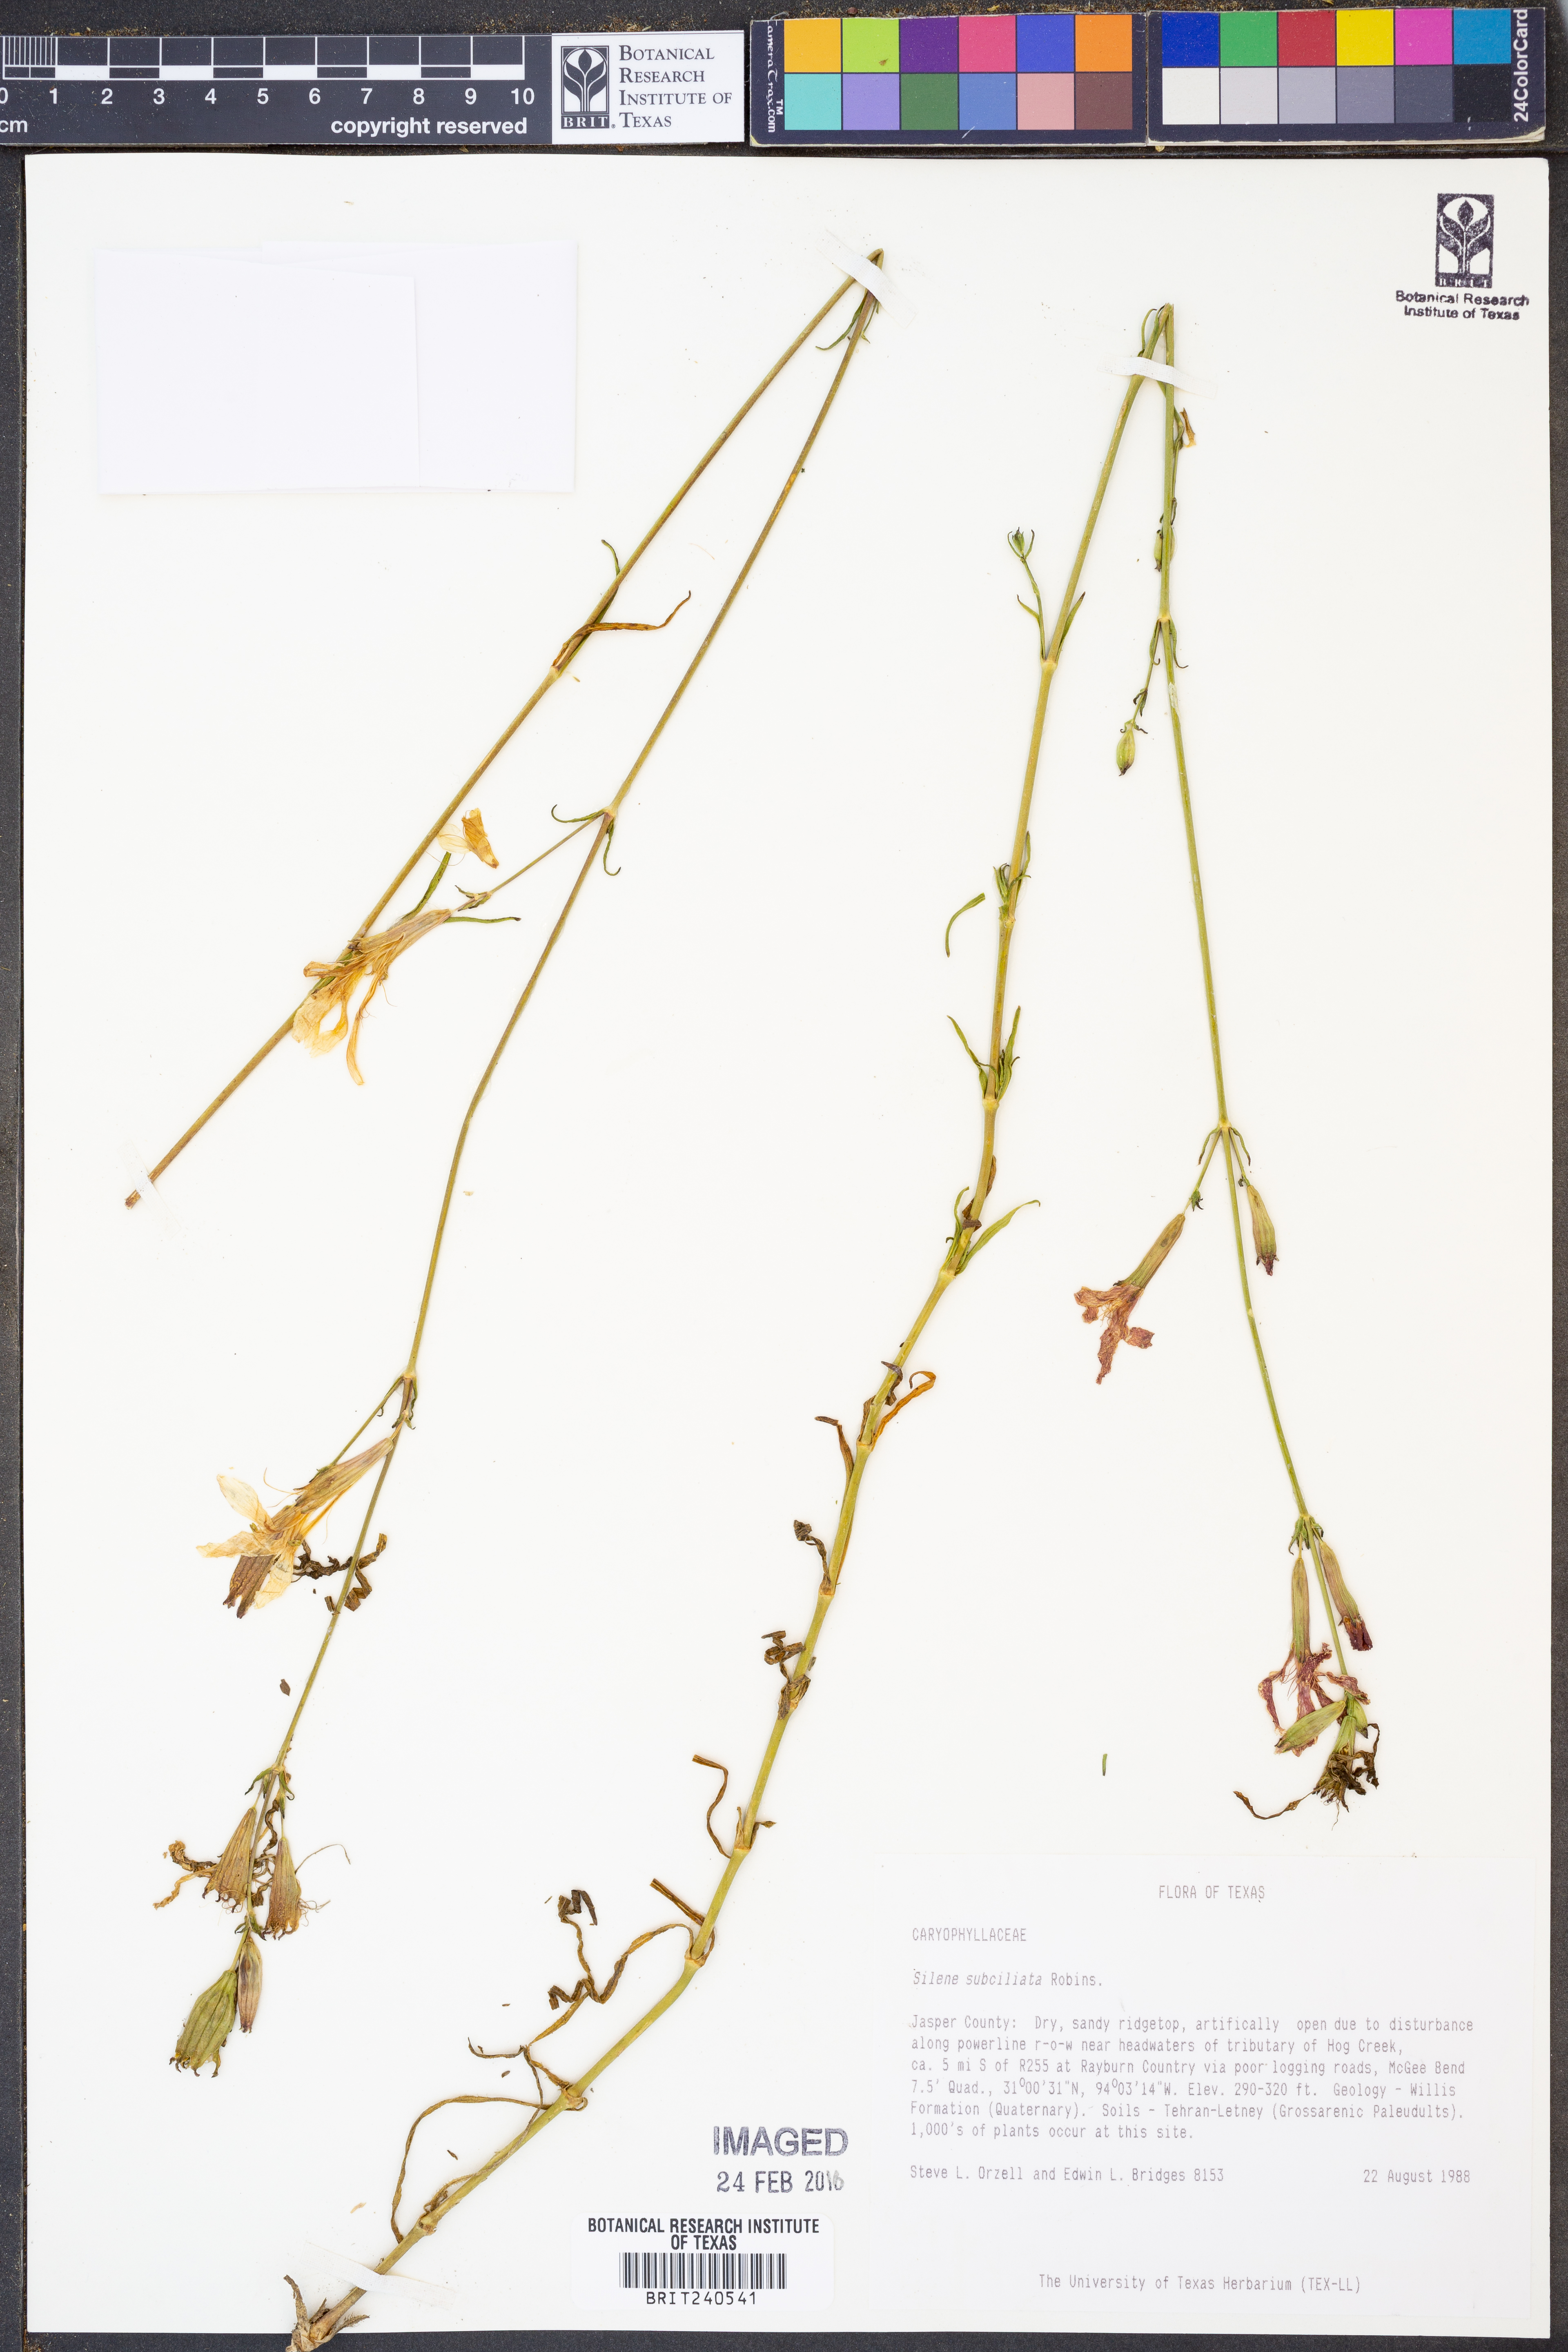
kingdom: Plantae
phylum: Tracheophyta
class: Magnoliopsida
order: Caryophyllales
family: Caryophyllaceae
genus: Silene
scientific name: Silene subciliata
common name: Prairie fire-pink
